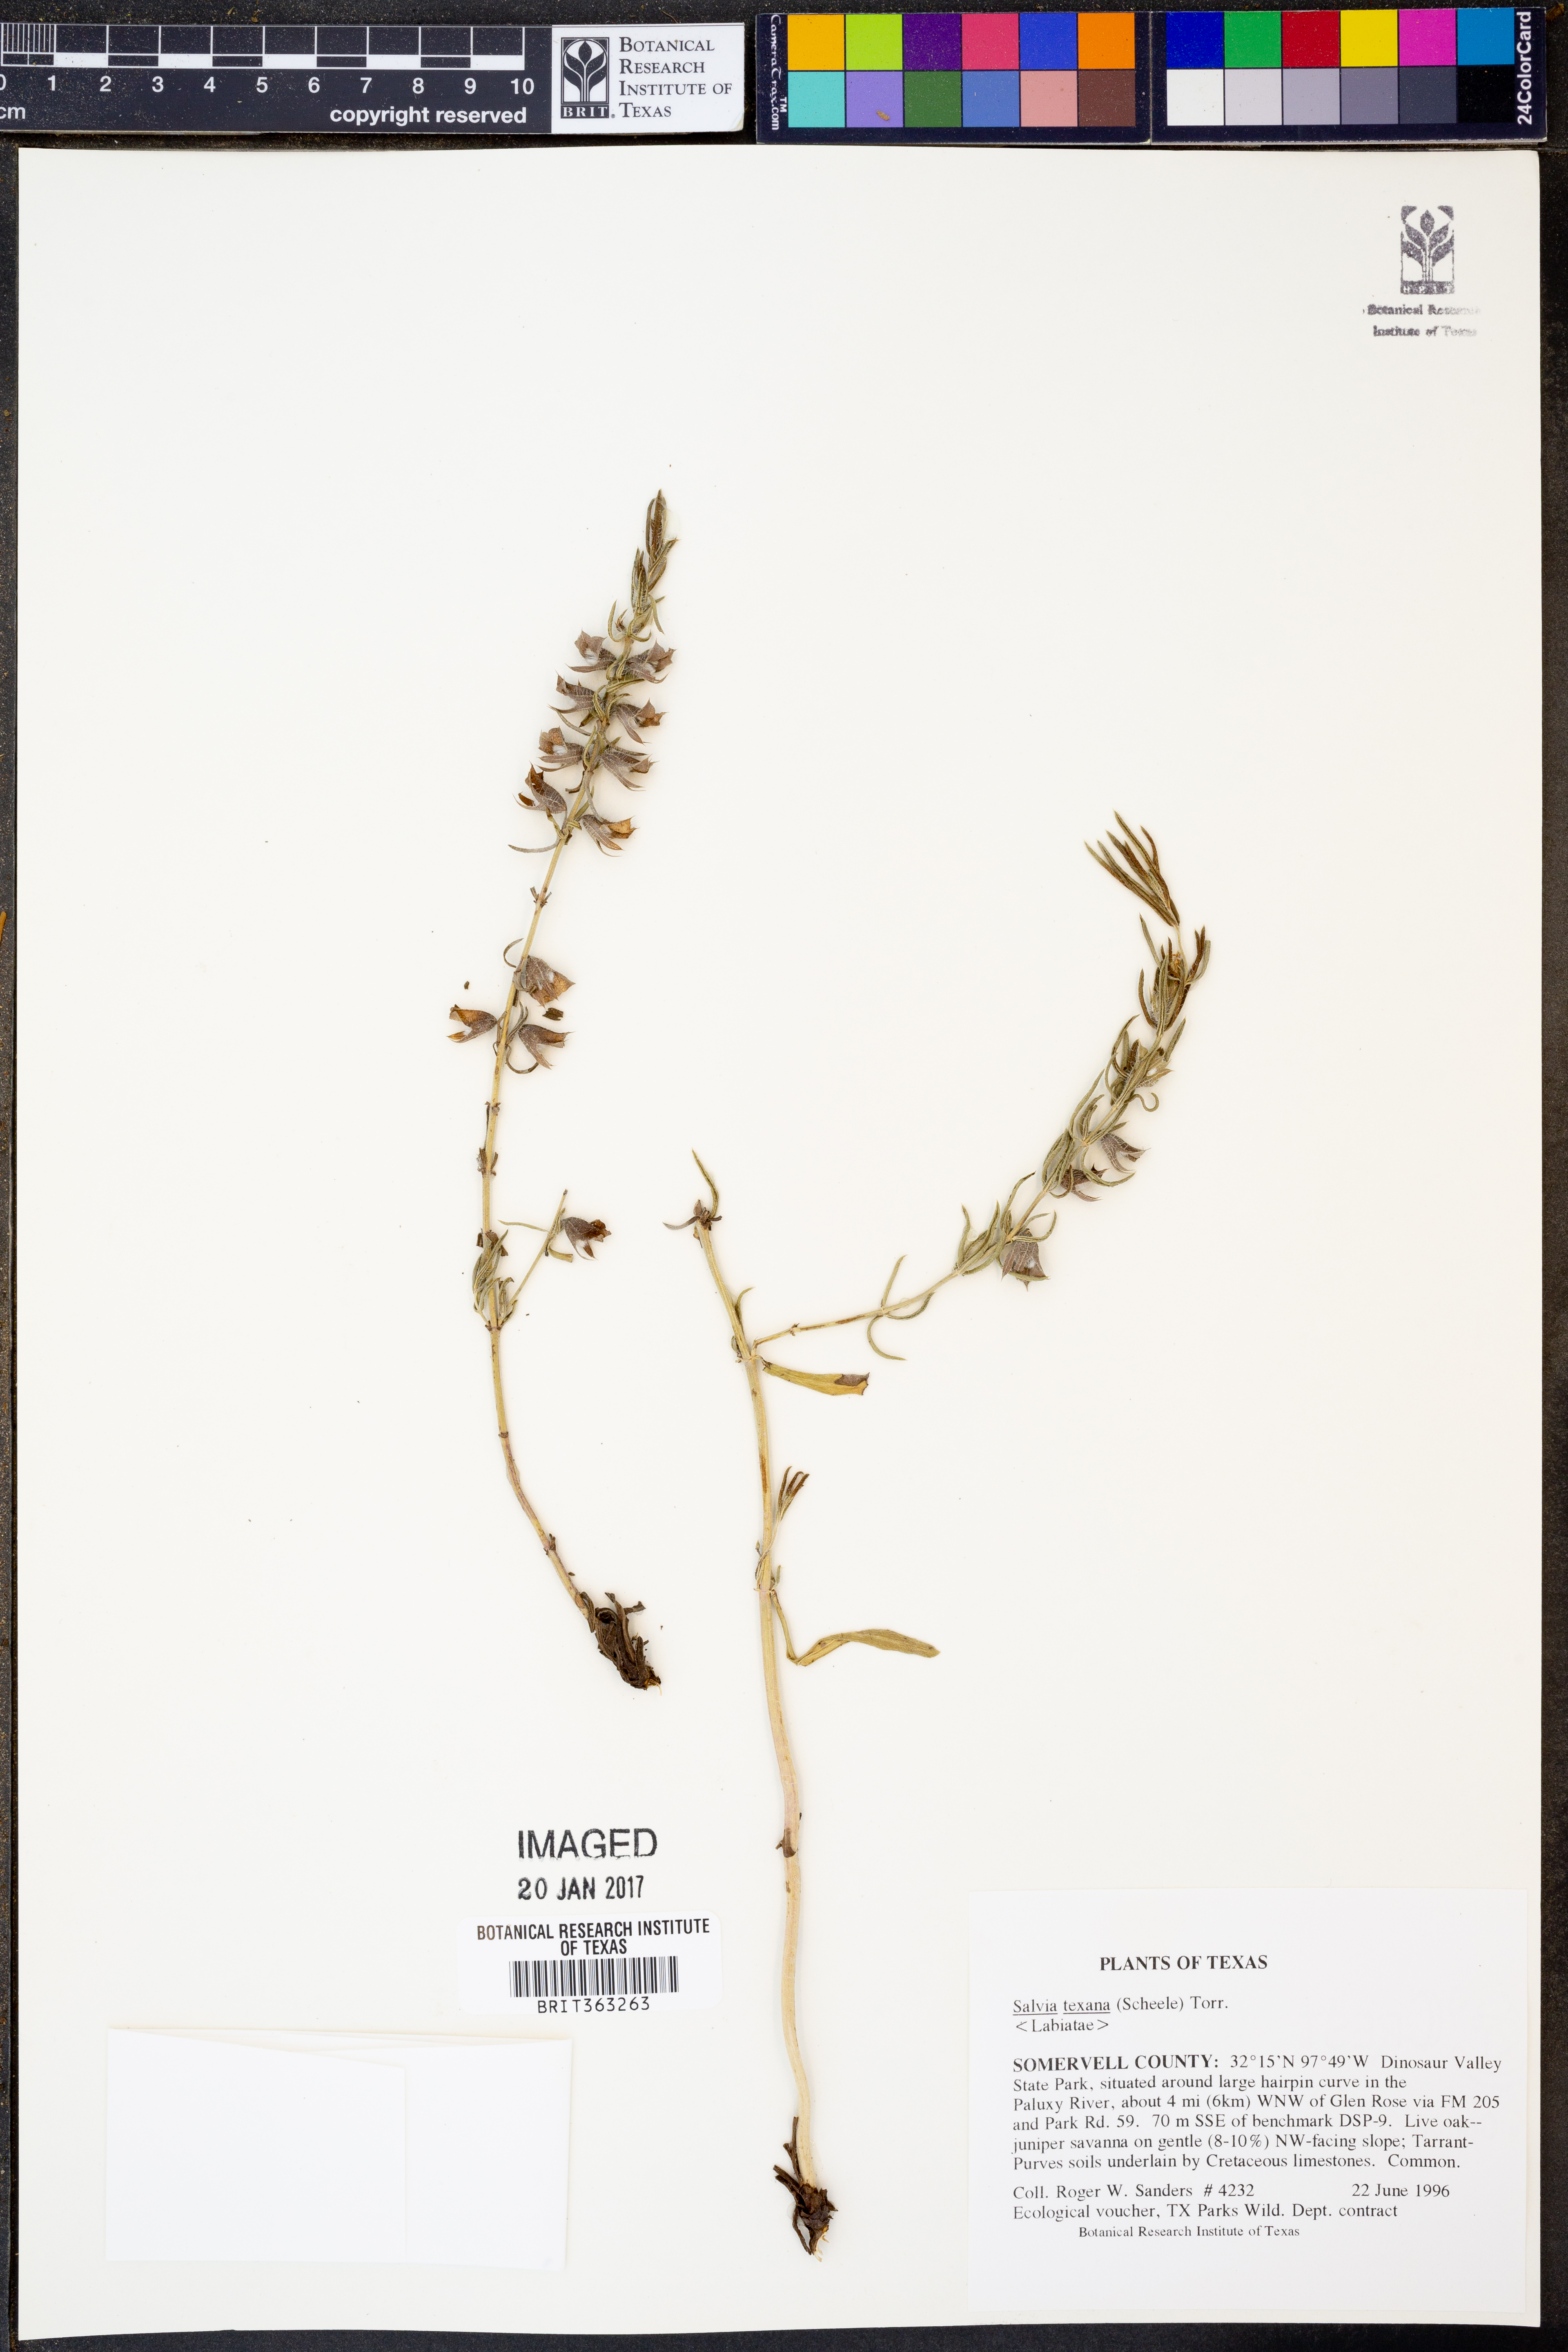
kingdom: Plantae
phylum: Tracheophyta
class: Magnoliopsida
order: Lamiales
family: Lamiaceae
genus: Salvia
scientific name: Salvia texana
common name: Texas sage
